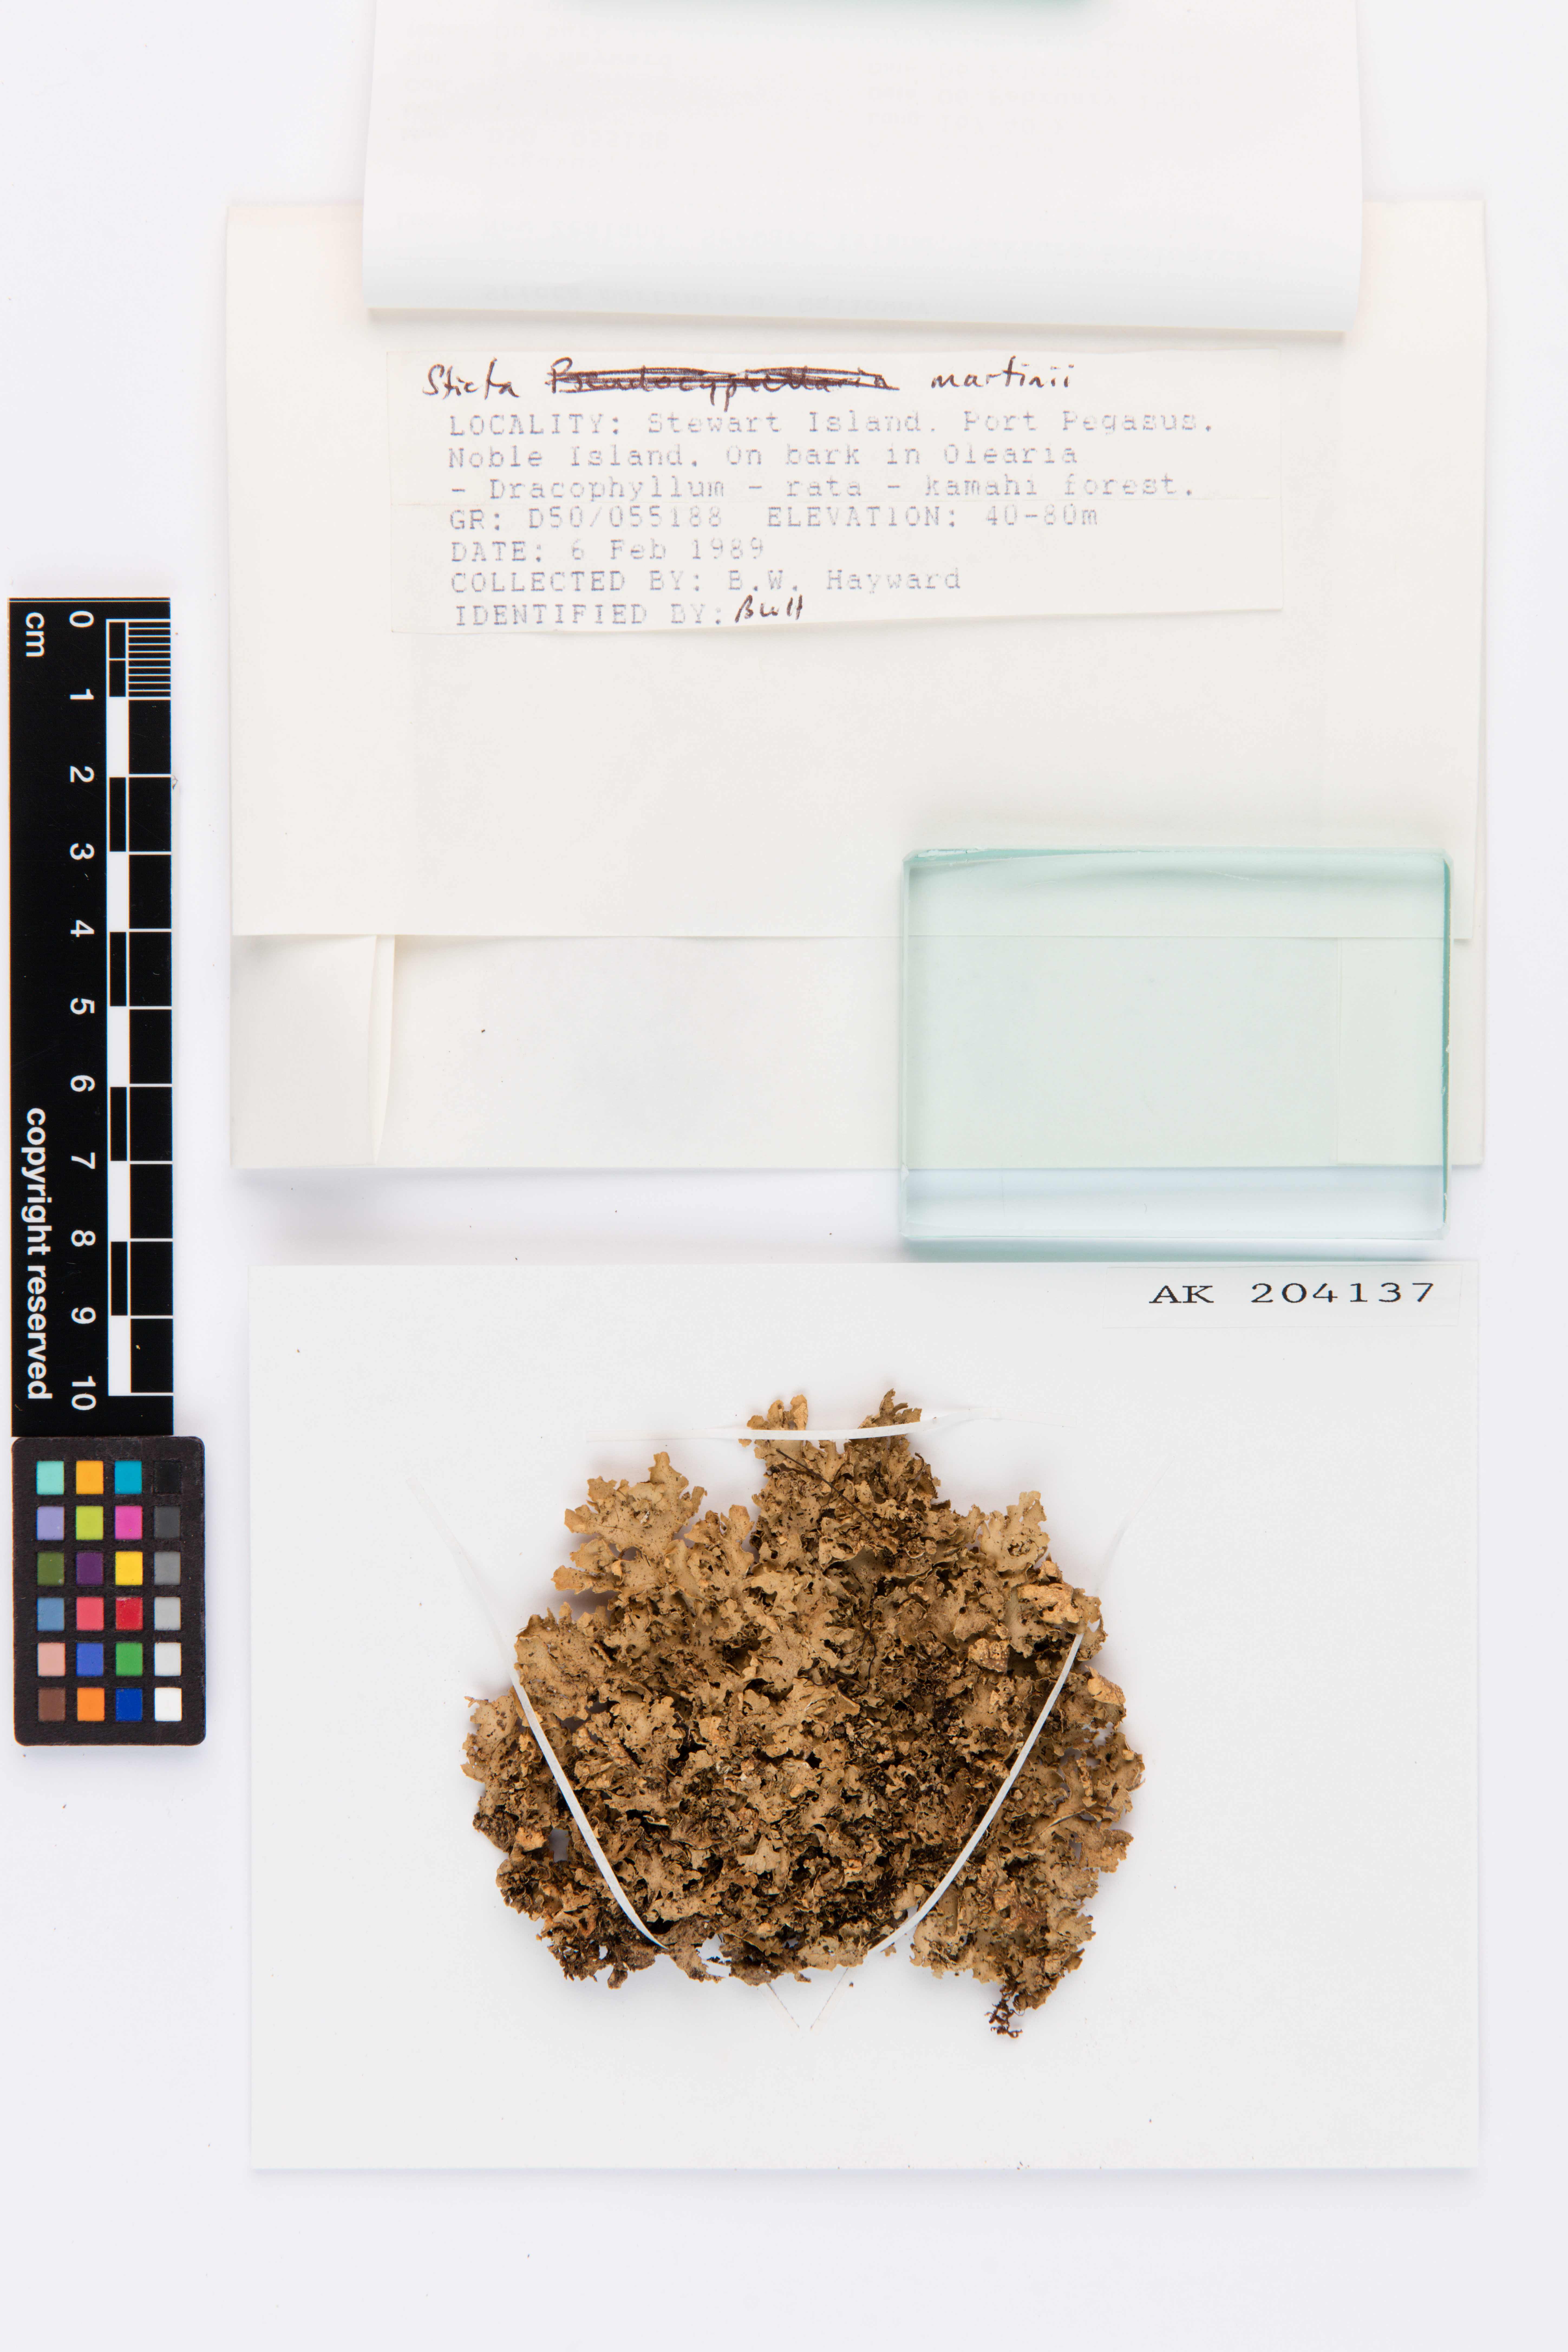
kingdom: Fungi
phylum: Ascomycota
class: Lecanoromycetes
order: Peltigerales
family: Lobariaceae
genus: Sticta
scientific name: Sticta martinii
